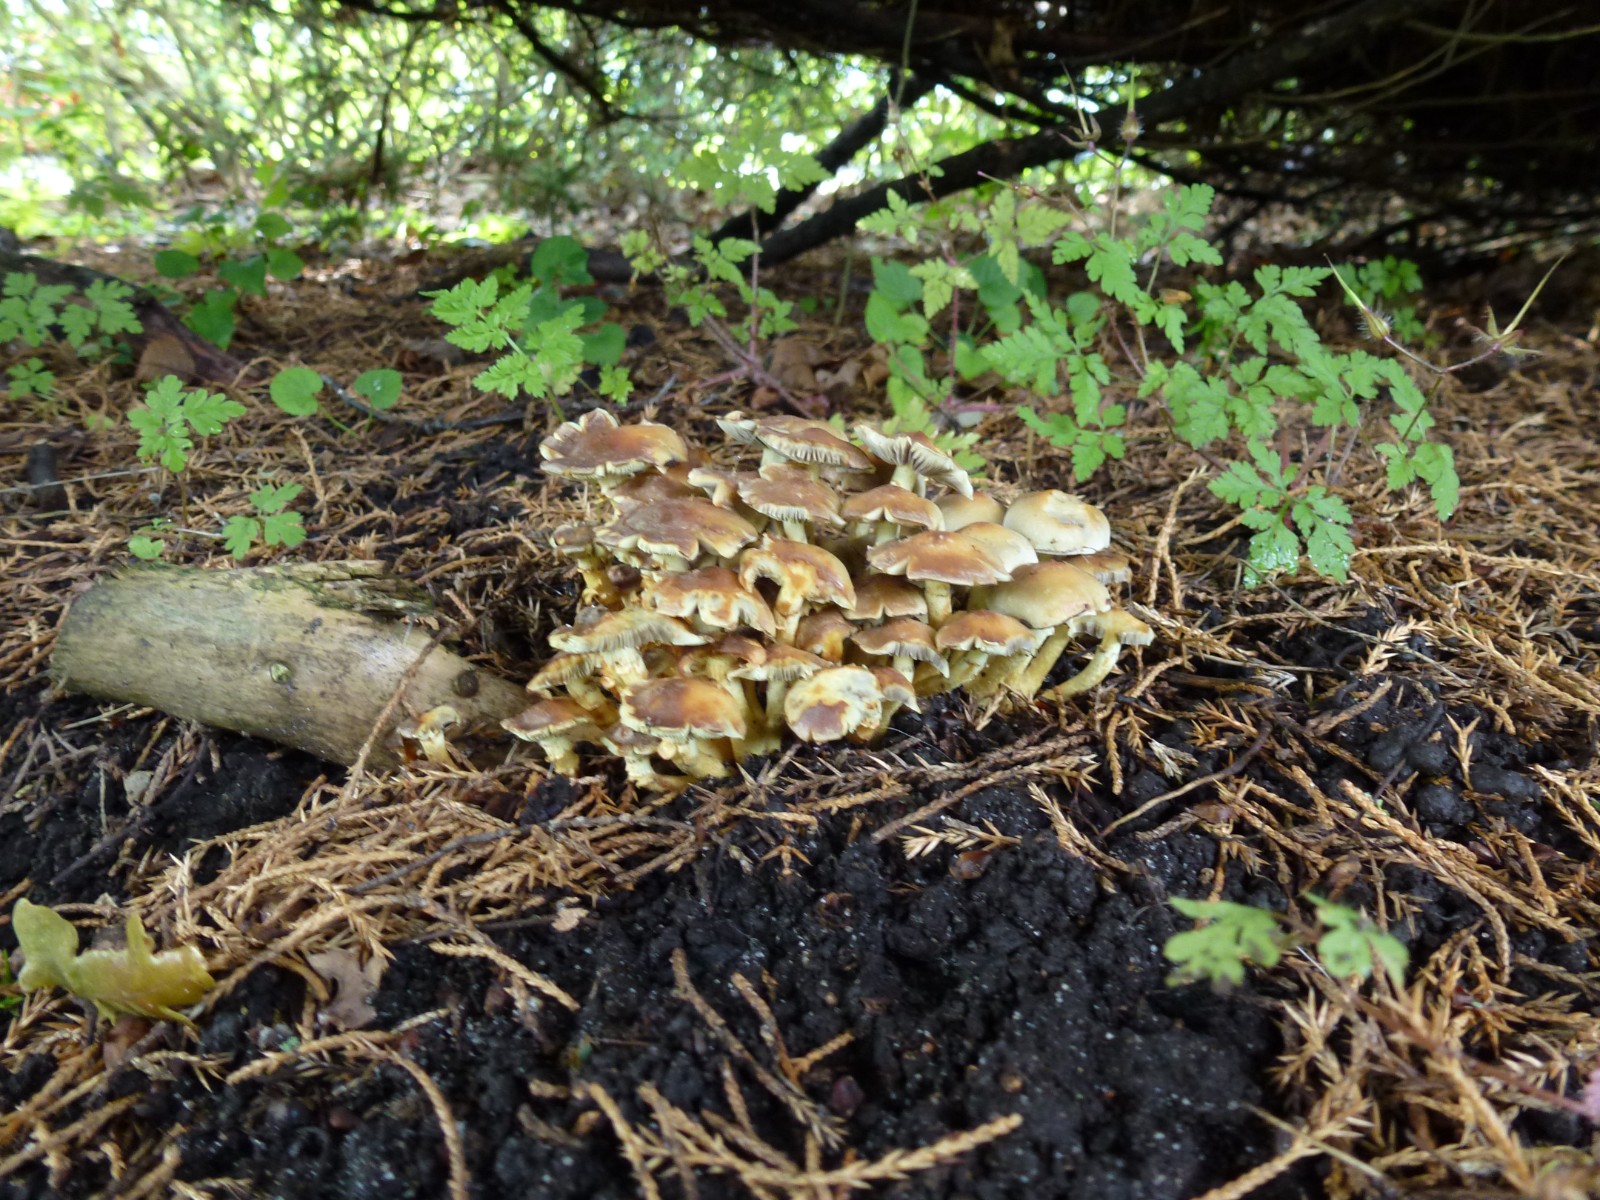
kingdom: Fungi
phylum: Basidiomycota
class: Agaricomycetes
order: Agaricales
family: Strophariaceae
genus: Hypholoma
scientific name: Hypholoma fasciculare
